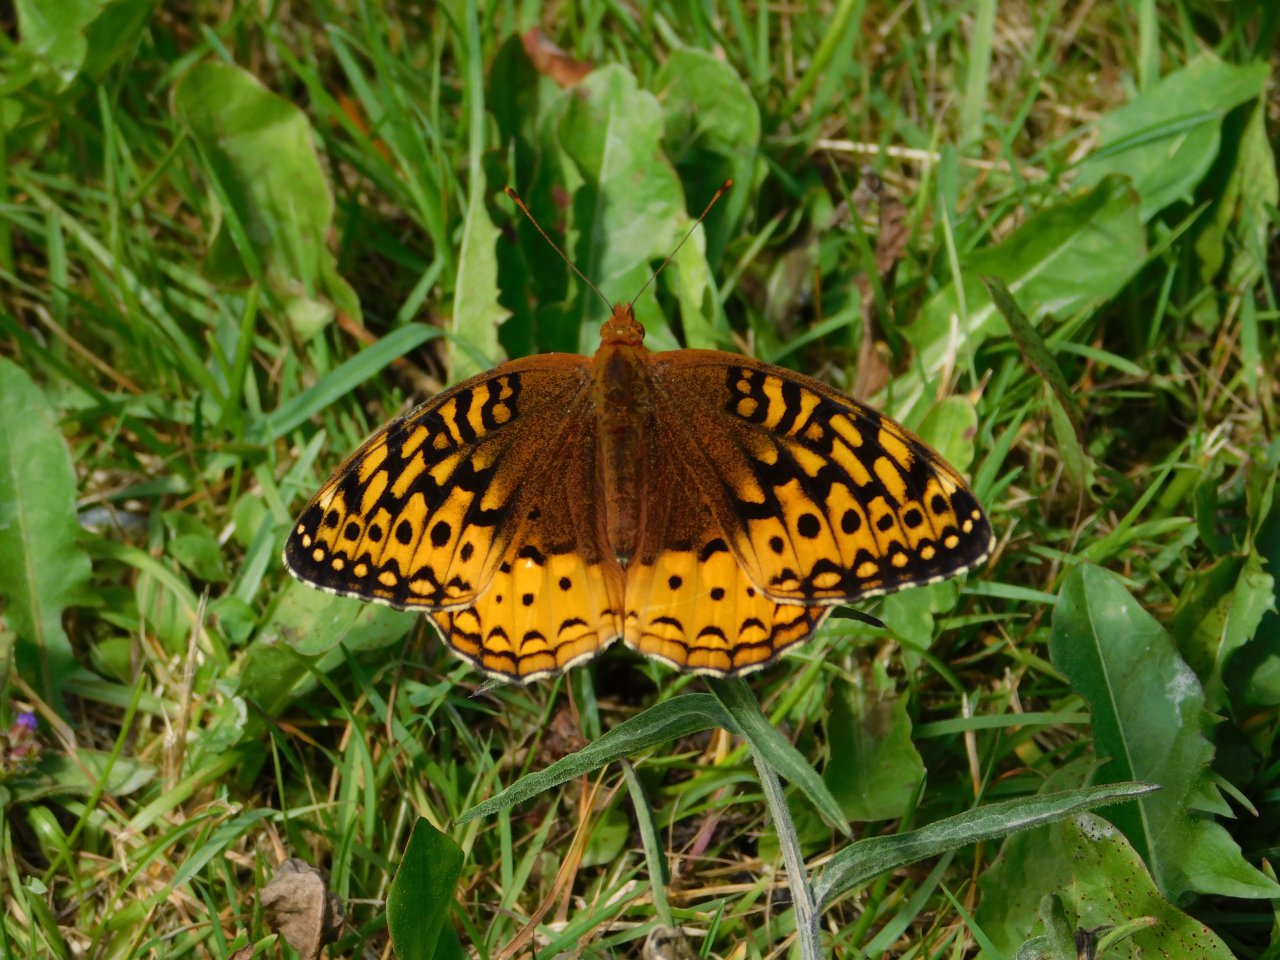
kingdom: Animalia
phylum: Arthropoda
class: Insecta
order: Lepidoptera
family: Nymphalidae
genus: Speyeria
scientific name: Speyeria cybele
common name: Great Spangled Fritillary
